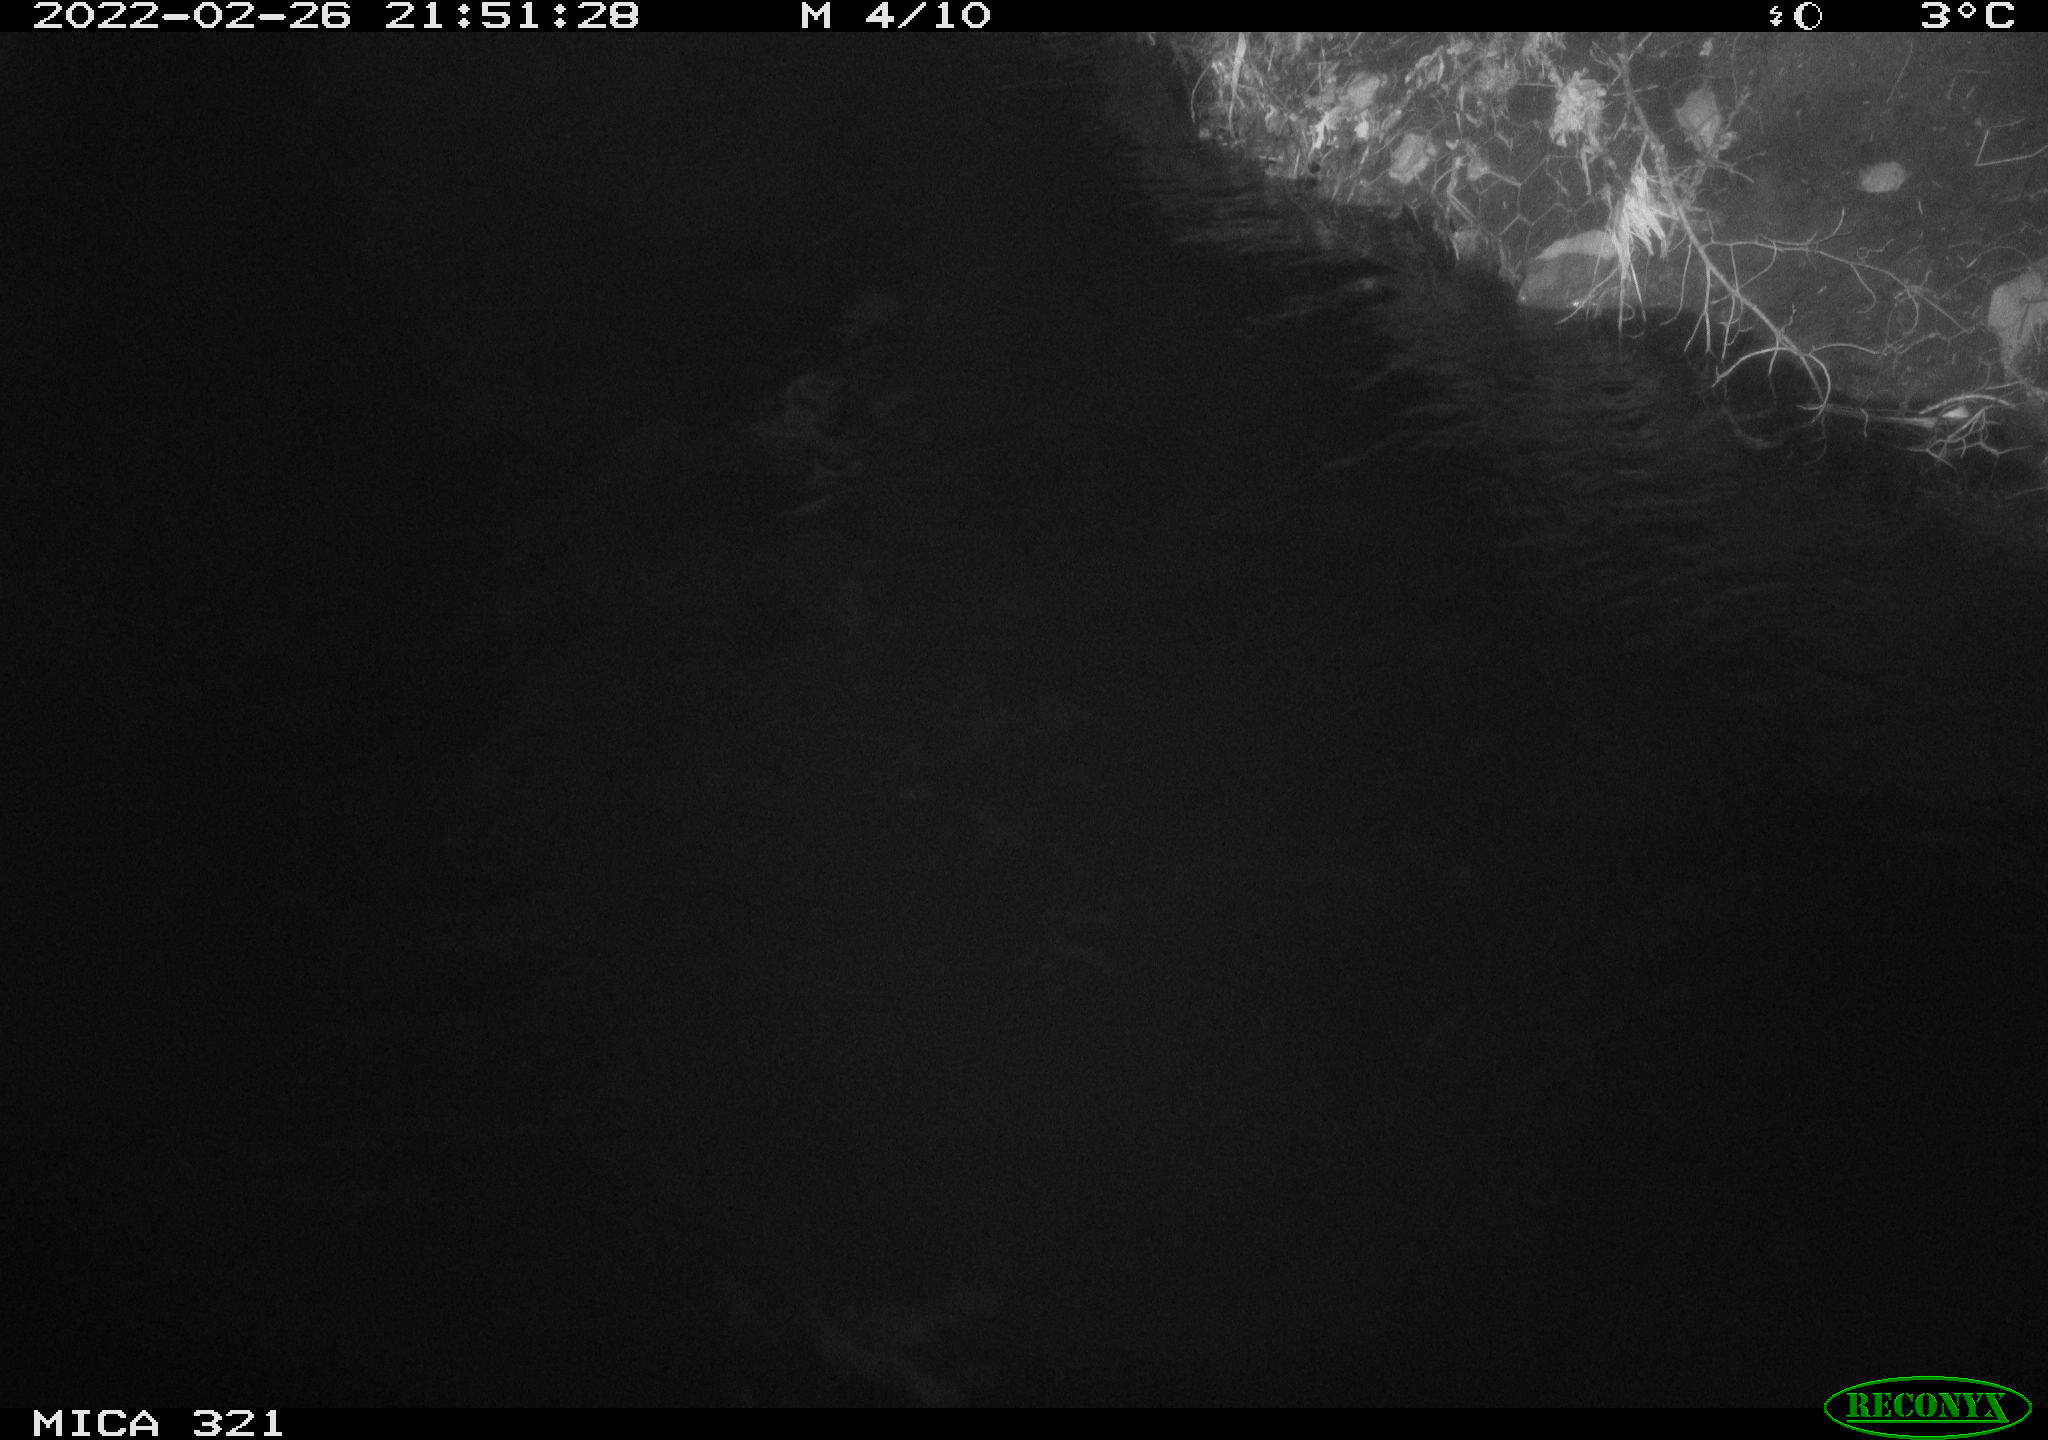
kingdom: Animalia
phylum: Chordata
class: Aves
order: Anseriformes
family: Anatidae
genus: Anas
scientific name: Anas platyrhynchos
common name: Mallard
